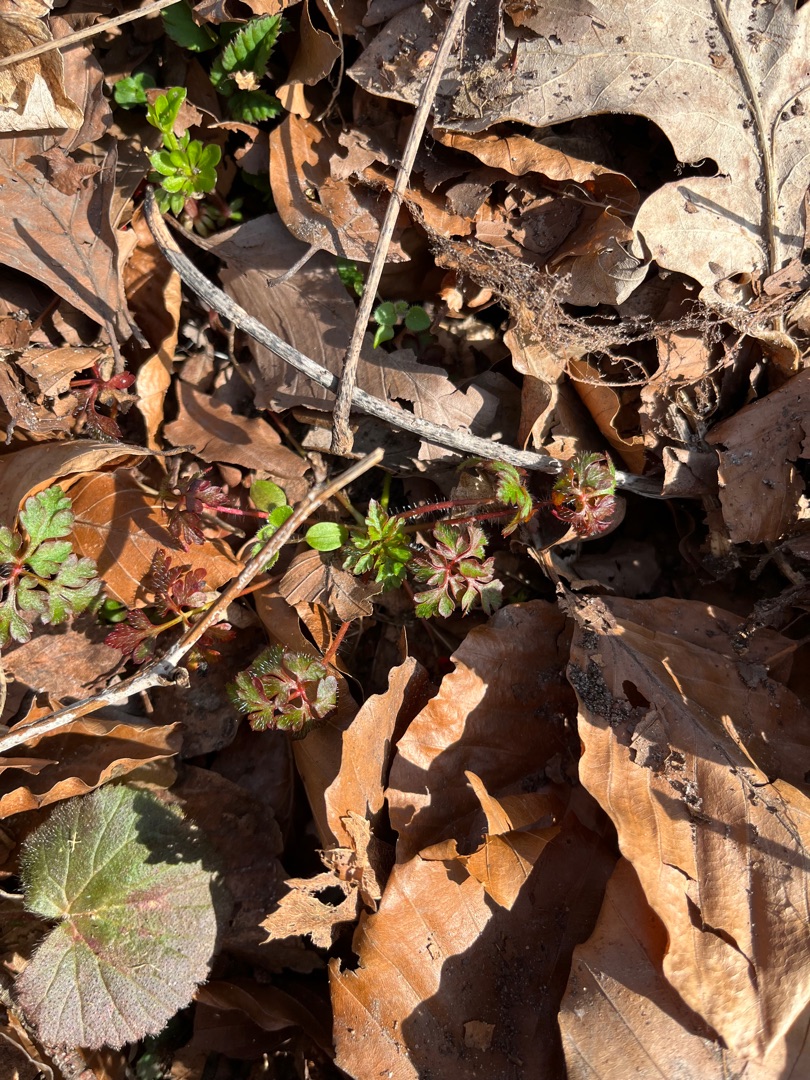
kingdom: Plantae
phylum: Tracheophyta
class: Magnoliopsida
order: Geraniales
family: Geraniaceae
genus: Geranium
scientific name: Geranium robertianum
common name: Stinkende storkenæb
